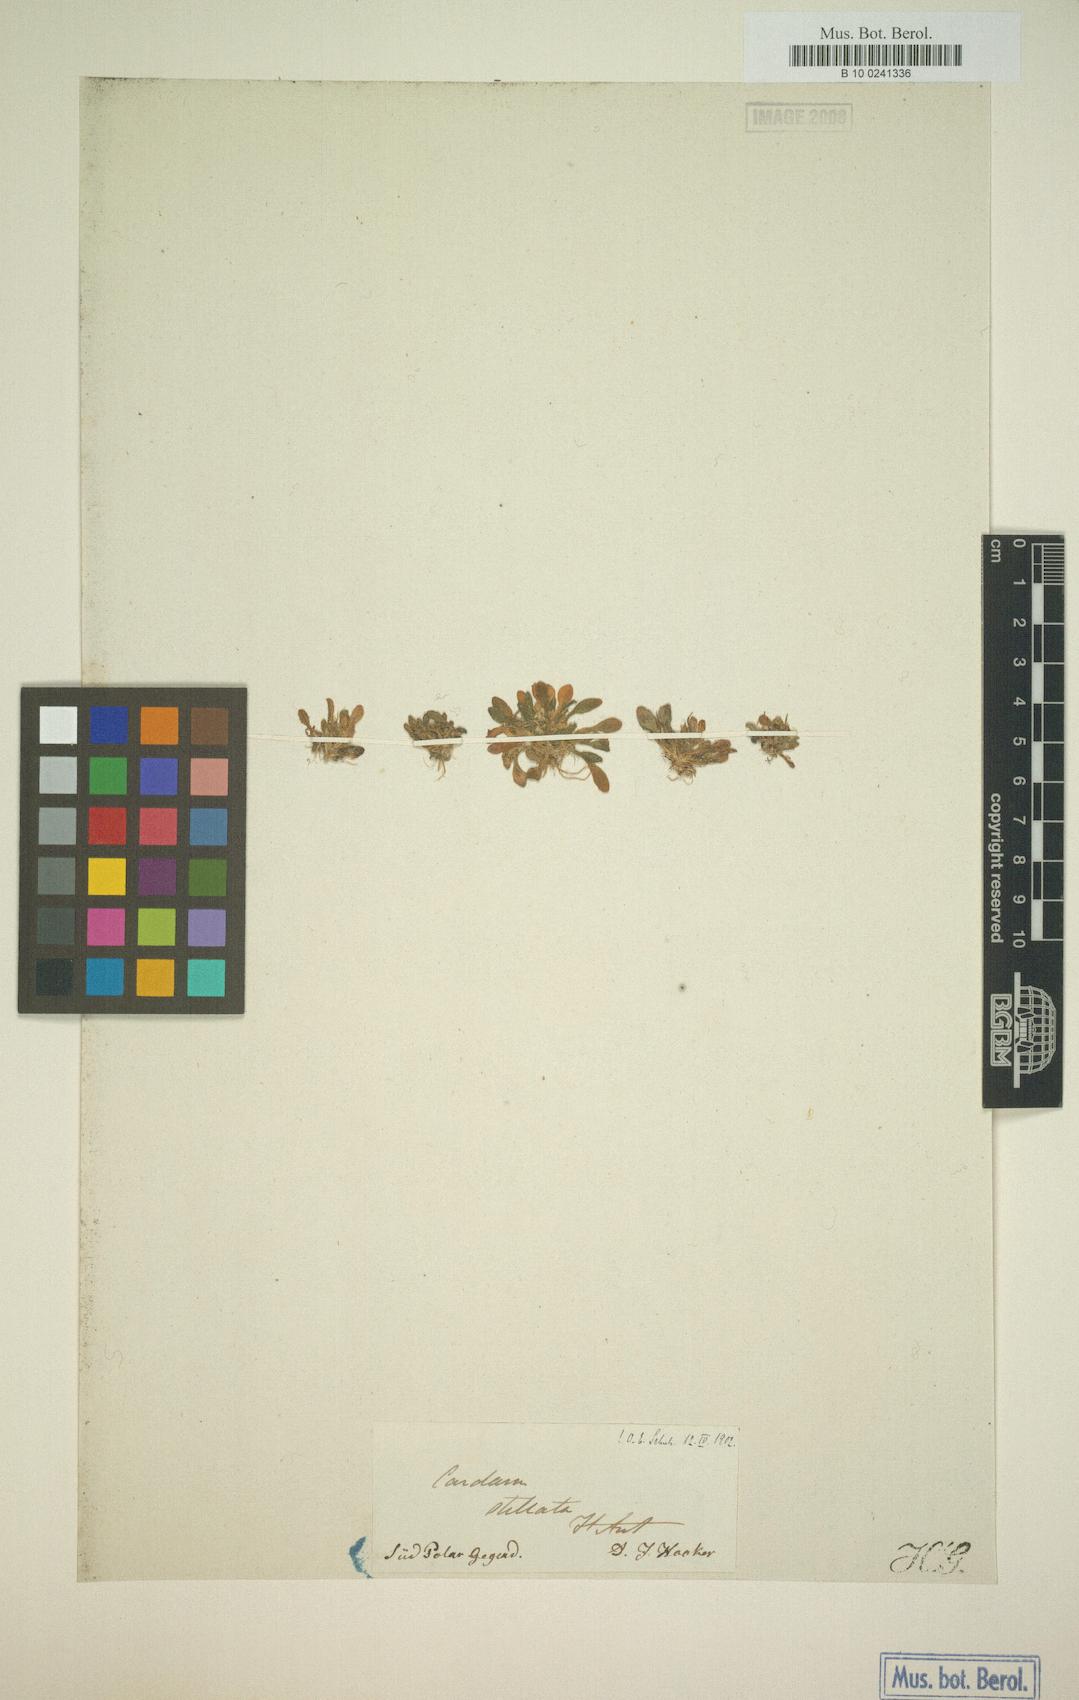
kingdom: Plantae
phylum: Tracheophyta
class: Magnoliopsida
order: Brassicales
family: Brassicaceae
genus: Cardamine
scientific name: Cardamine depressa
